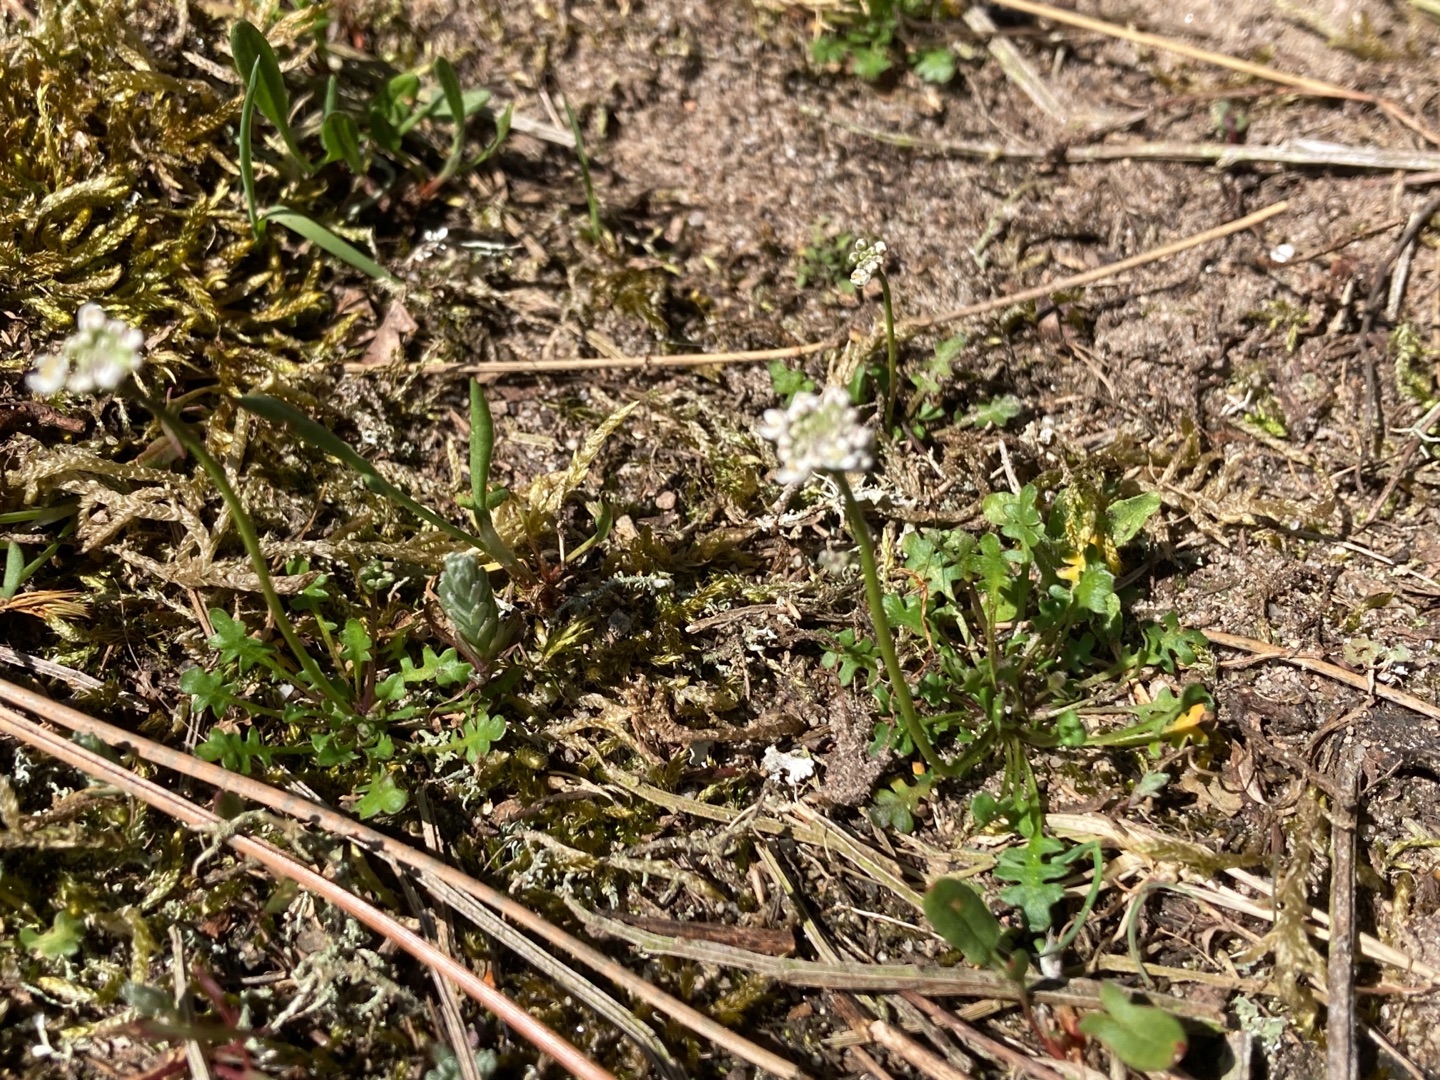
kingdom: Plantae
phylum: Tracheophyta
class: Magnoliopsida
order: Brassicales
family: Brassicaceae
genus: Teesdalia
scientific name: Teesdalia nudicaulis
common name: Flipkrave
